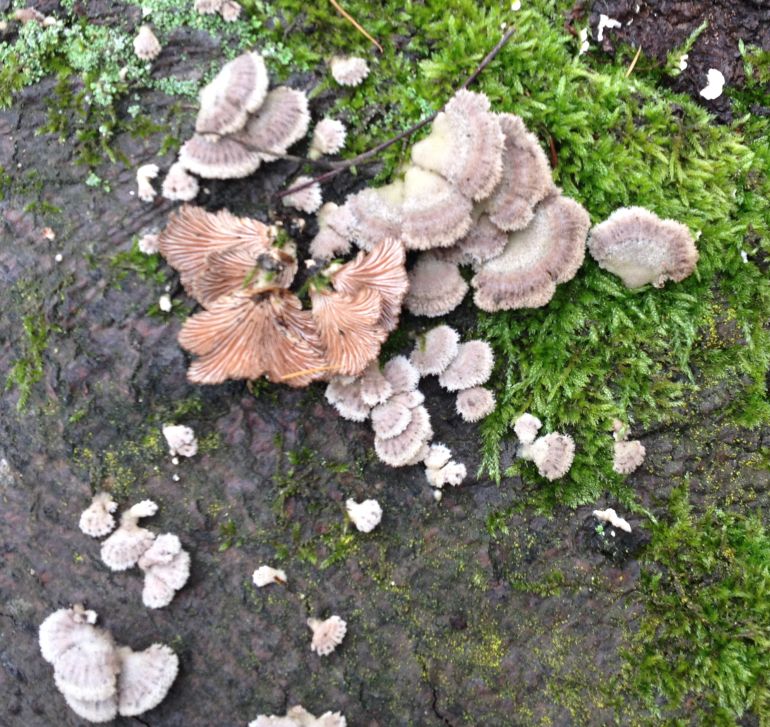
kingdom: Fungi
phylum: Basidiomycota
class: Agaricomycetes
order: Agaricales
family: Schizophyllaceae
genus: Schizophyllum
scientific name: Schizophyllum commune
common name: kløvblad
